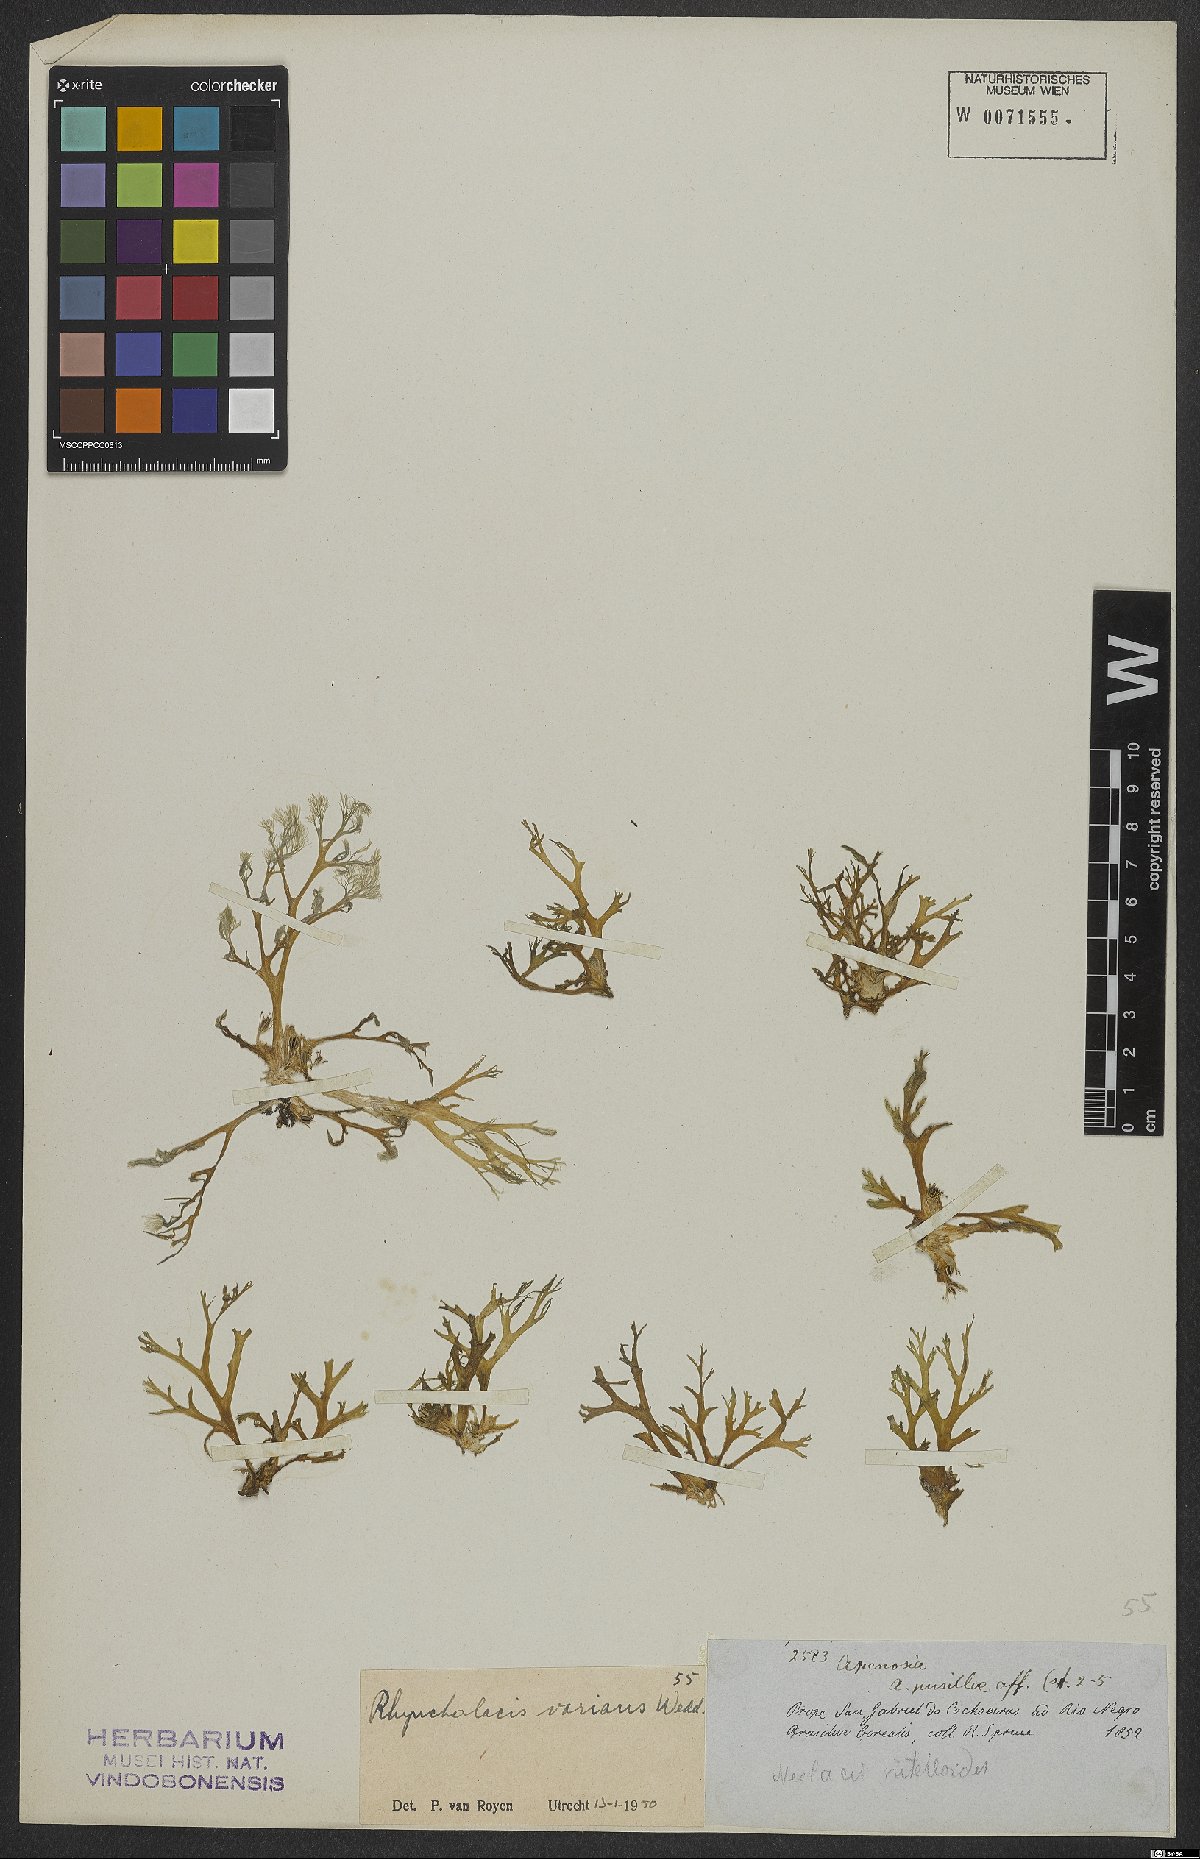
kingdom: Plantae
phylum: Tracheophyta
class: Magnoliopsida
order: Malpighiales
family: Podostemaceae
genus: Rhyncholacis
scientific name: Rhyncholacis varians
